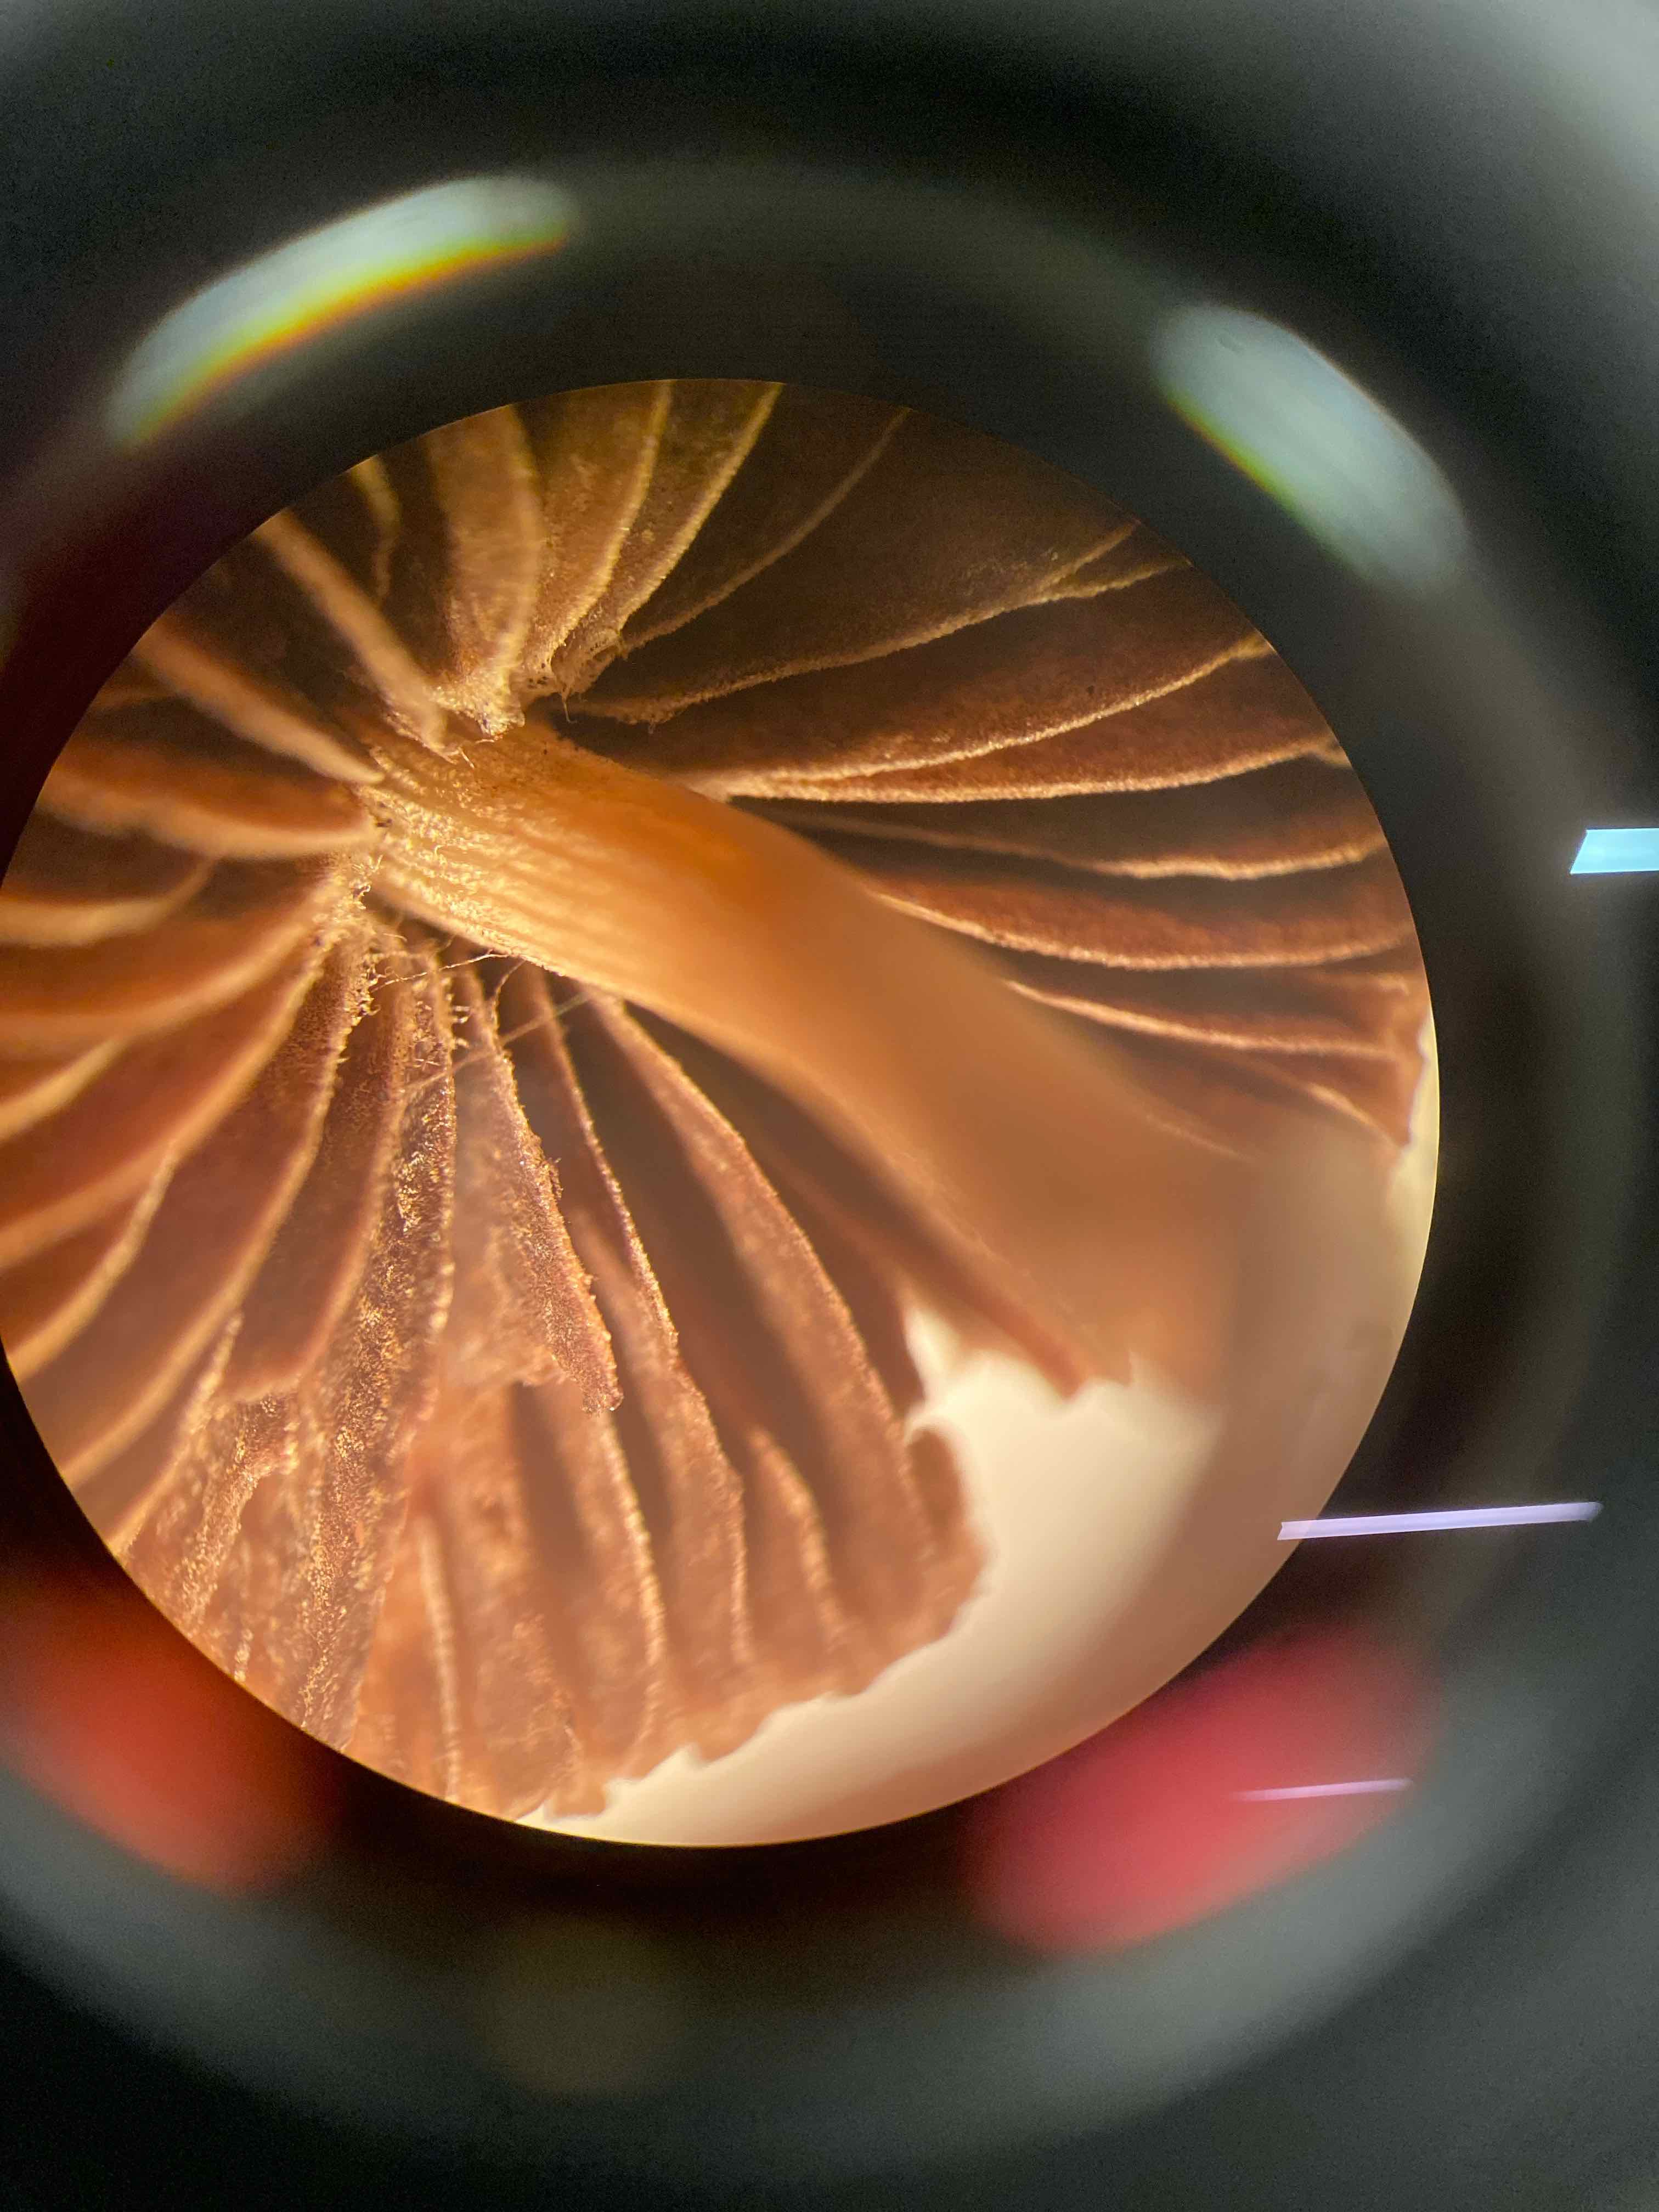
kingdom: Fungi
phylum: Basidiomycota
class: Agaricomycetes
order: Agaricales
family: Bolbitiaceae
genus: Panaeolina
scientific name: Panaeolina foenisecii
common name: høslætsvamp
